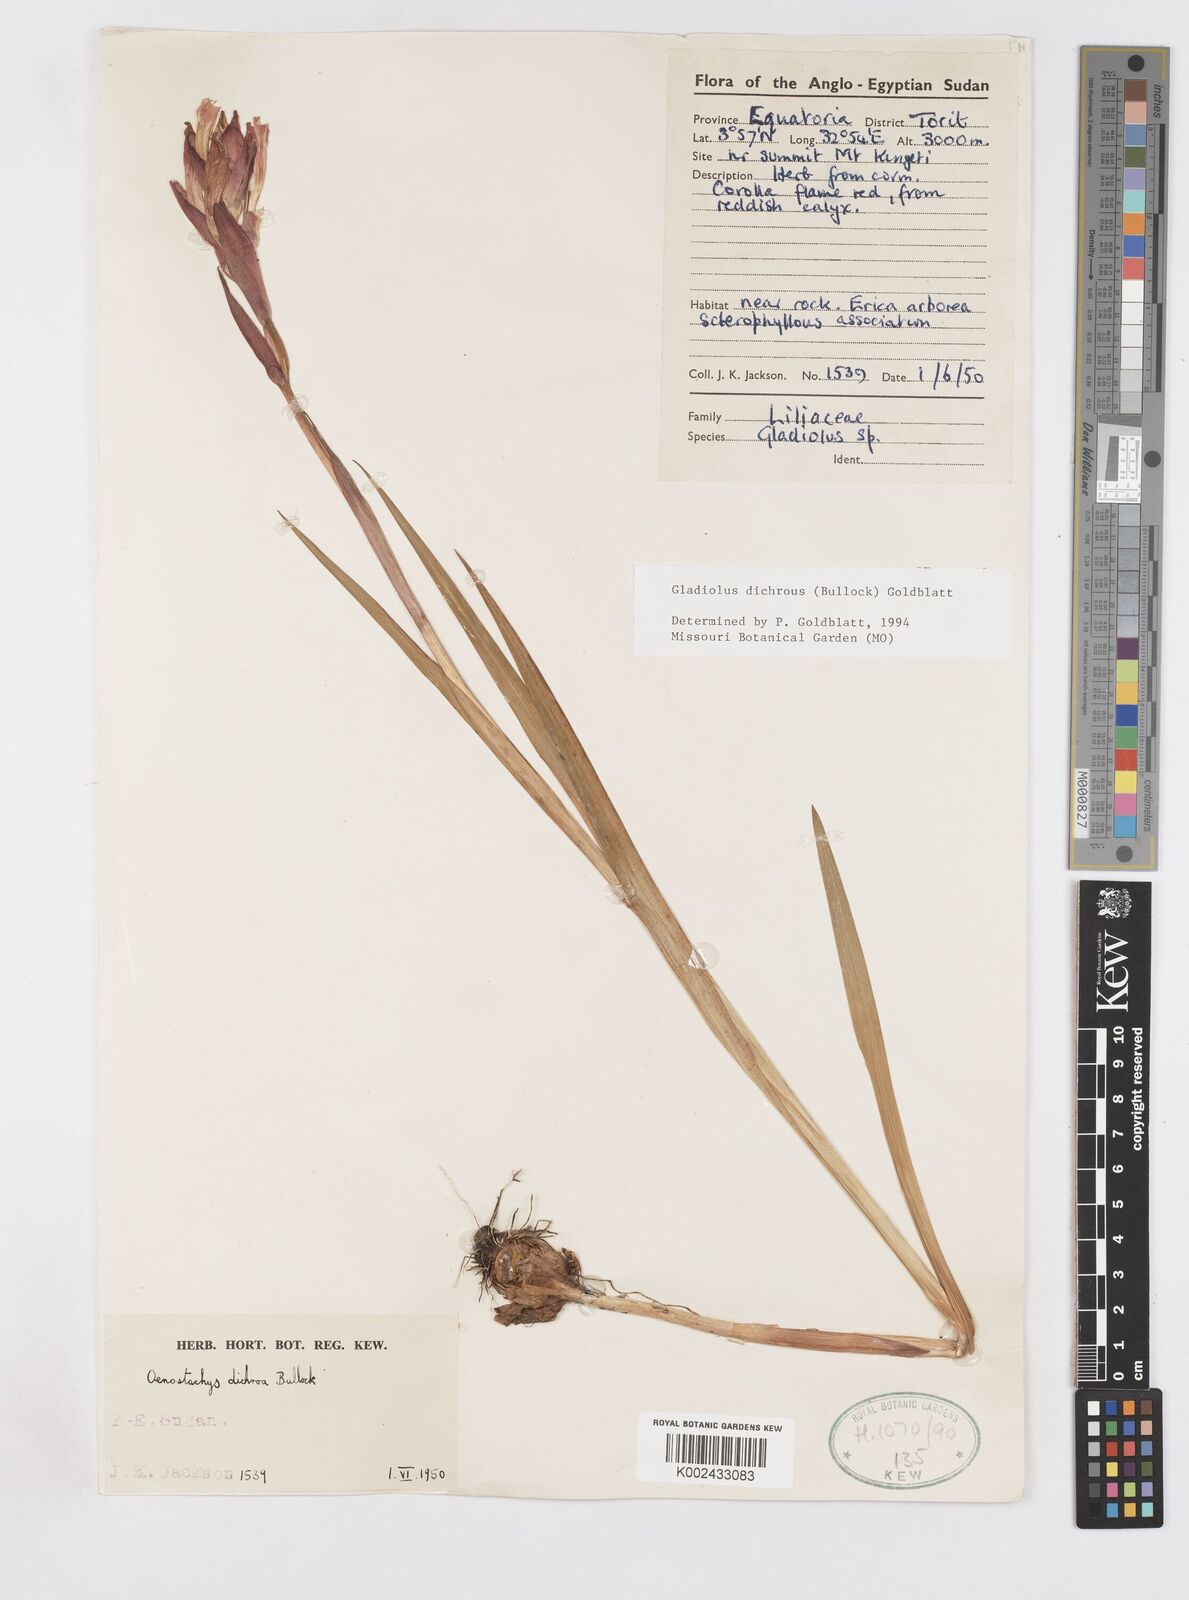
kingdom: Plantae
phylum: Tracheophyta
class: Liliopsida
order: Asparagales
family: Iridaceae
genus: Gladiolus
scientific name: Gladiolus dichrous
